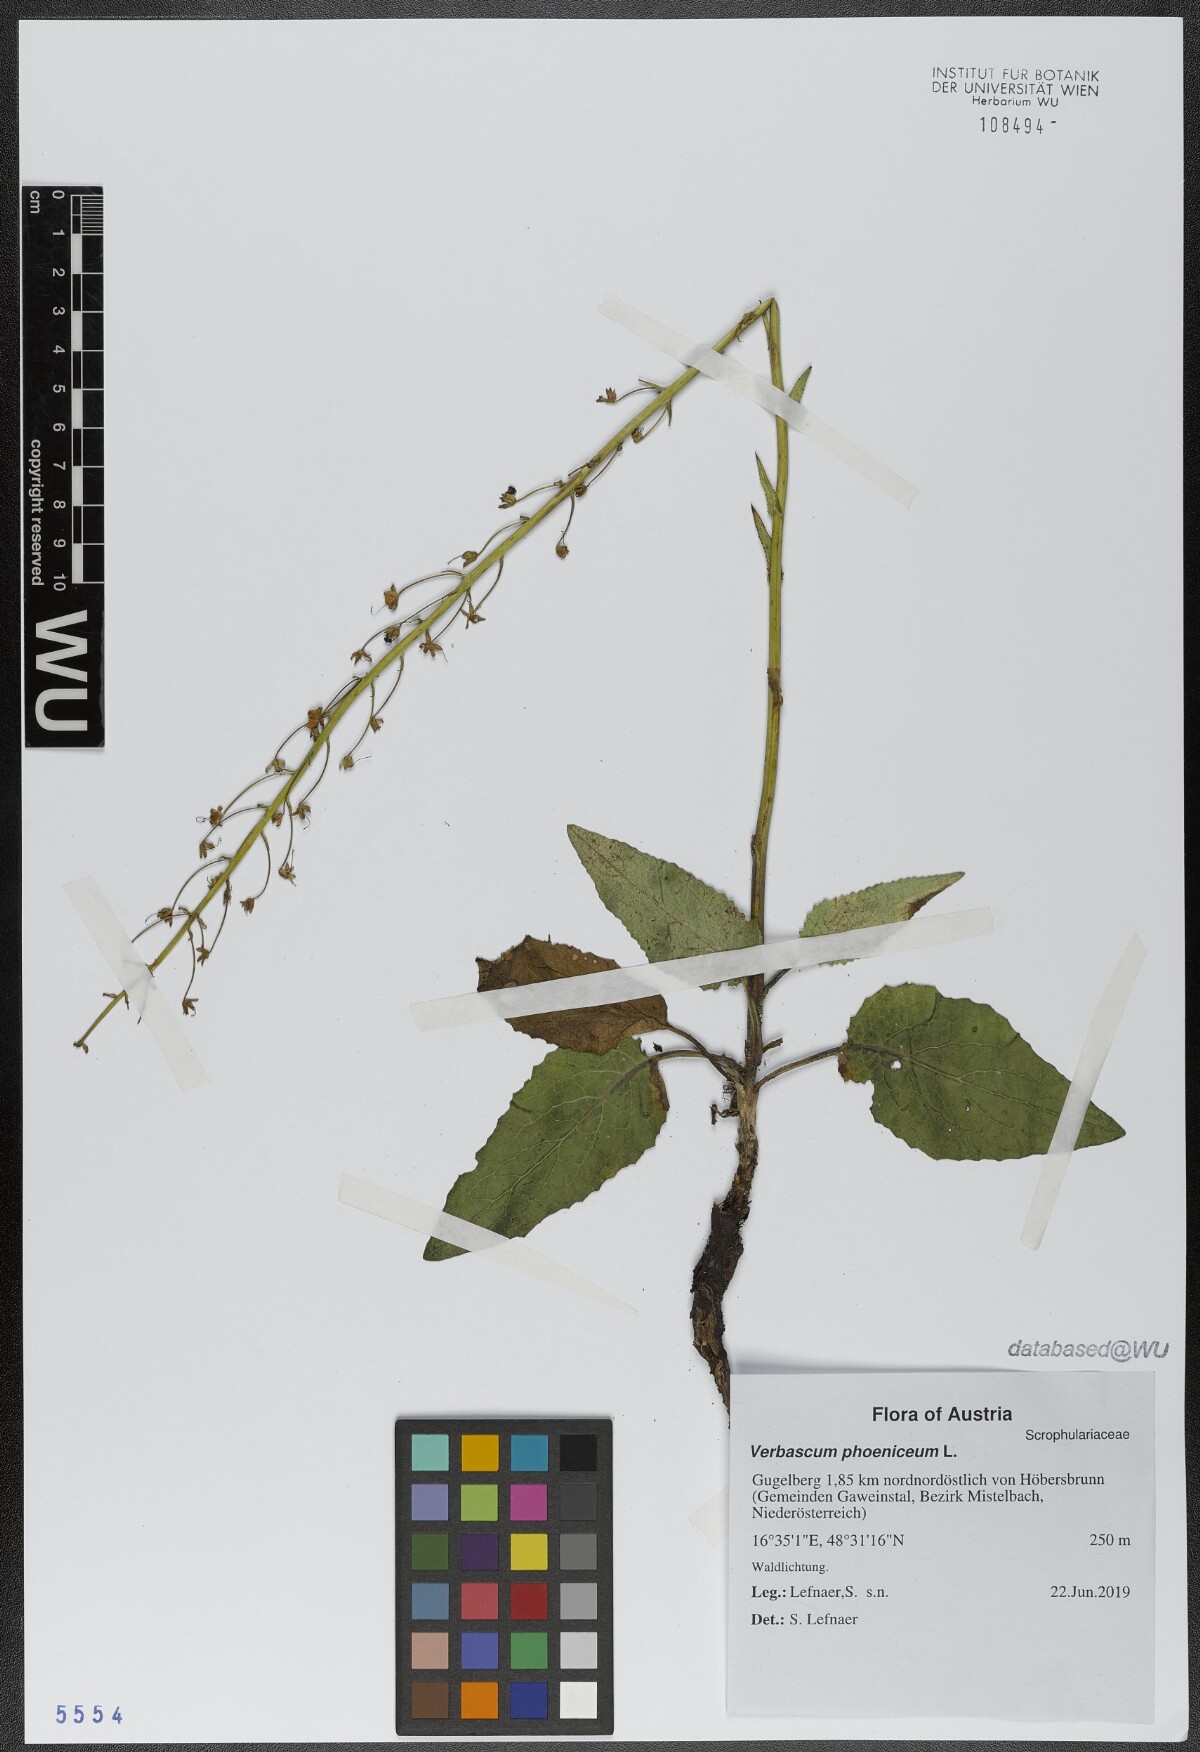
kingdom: Plantae
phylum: Tracheophyta
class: Magnoliopsida
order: Lamiales
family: Scrophulariaceae
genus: Verbascum
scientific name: Verbascum phoeniceum
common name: Purple mullein
